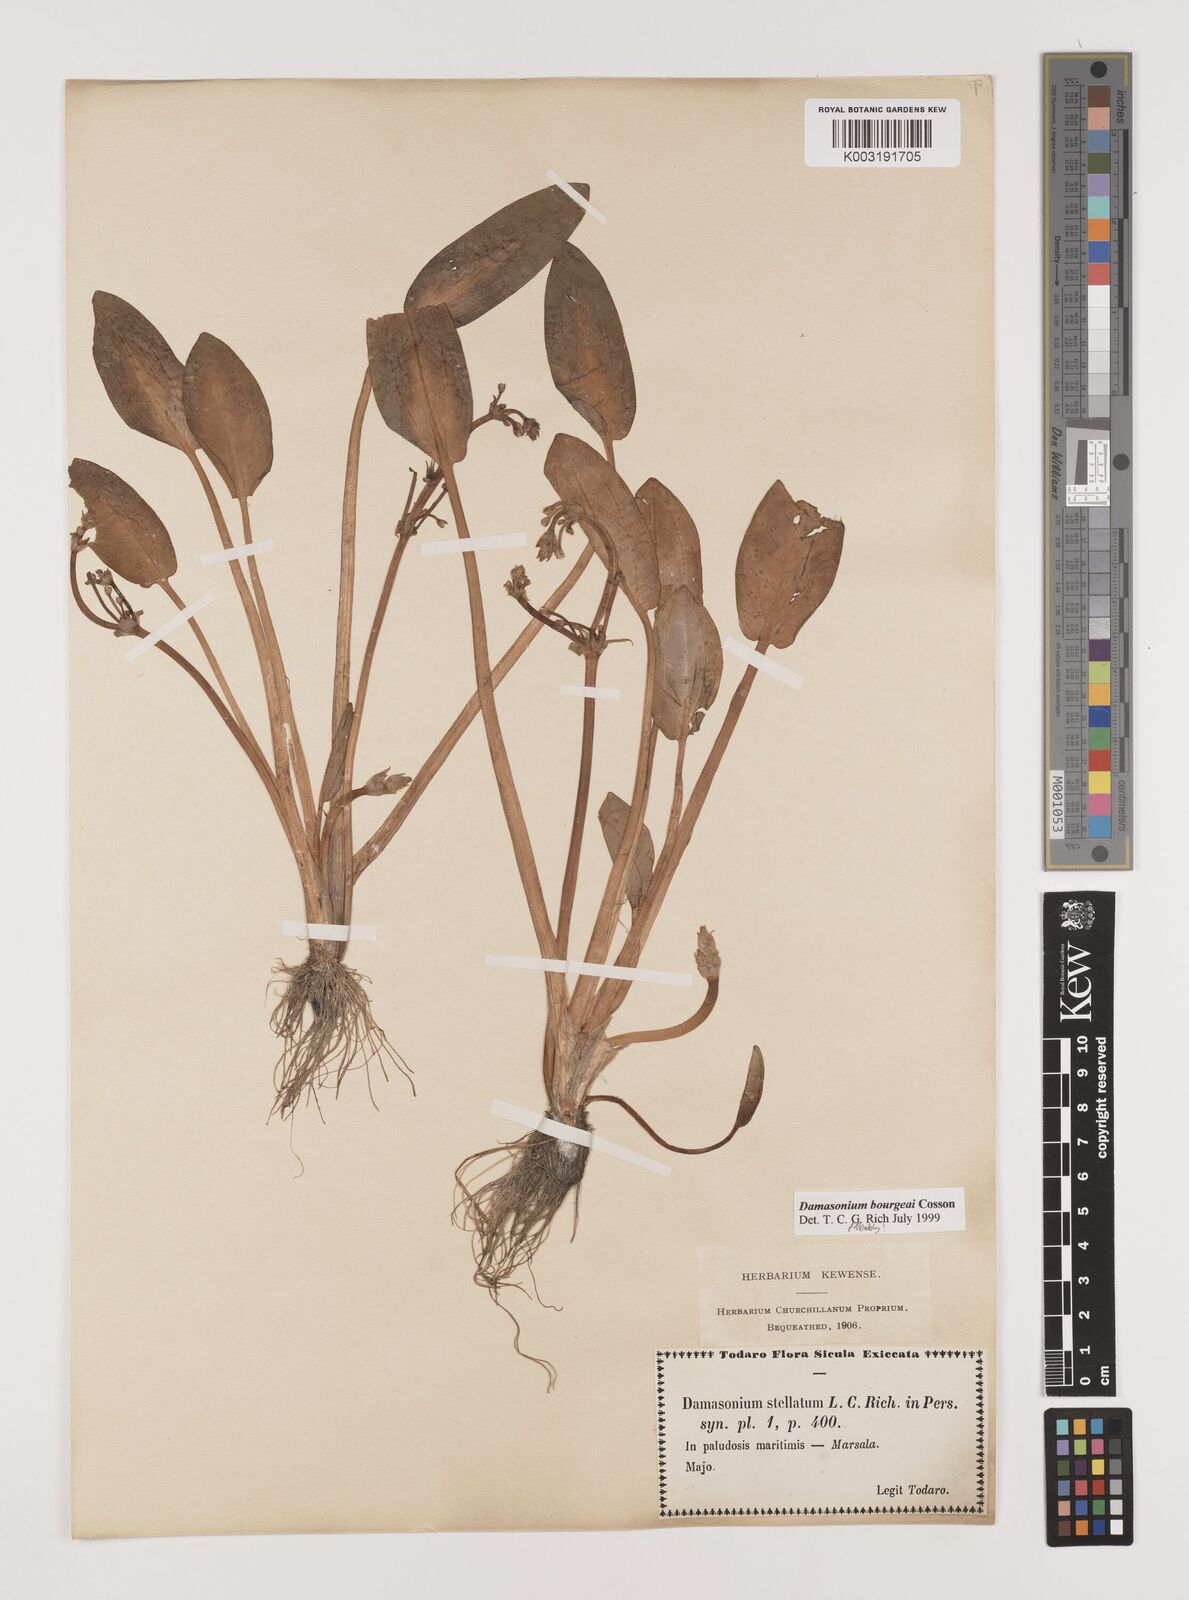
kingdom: Plantae
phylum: Tracheophyta
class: Liliopsida
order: Alismatales
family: Alismataceae
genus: Damasonium
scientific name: Damasonium bourgaei
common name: Starfruit
